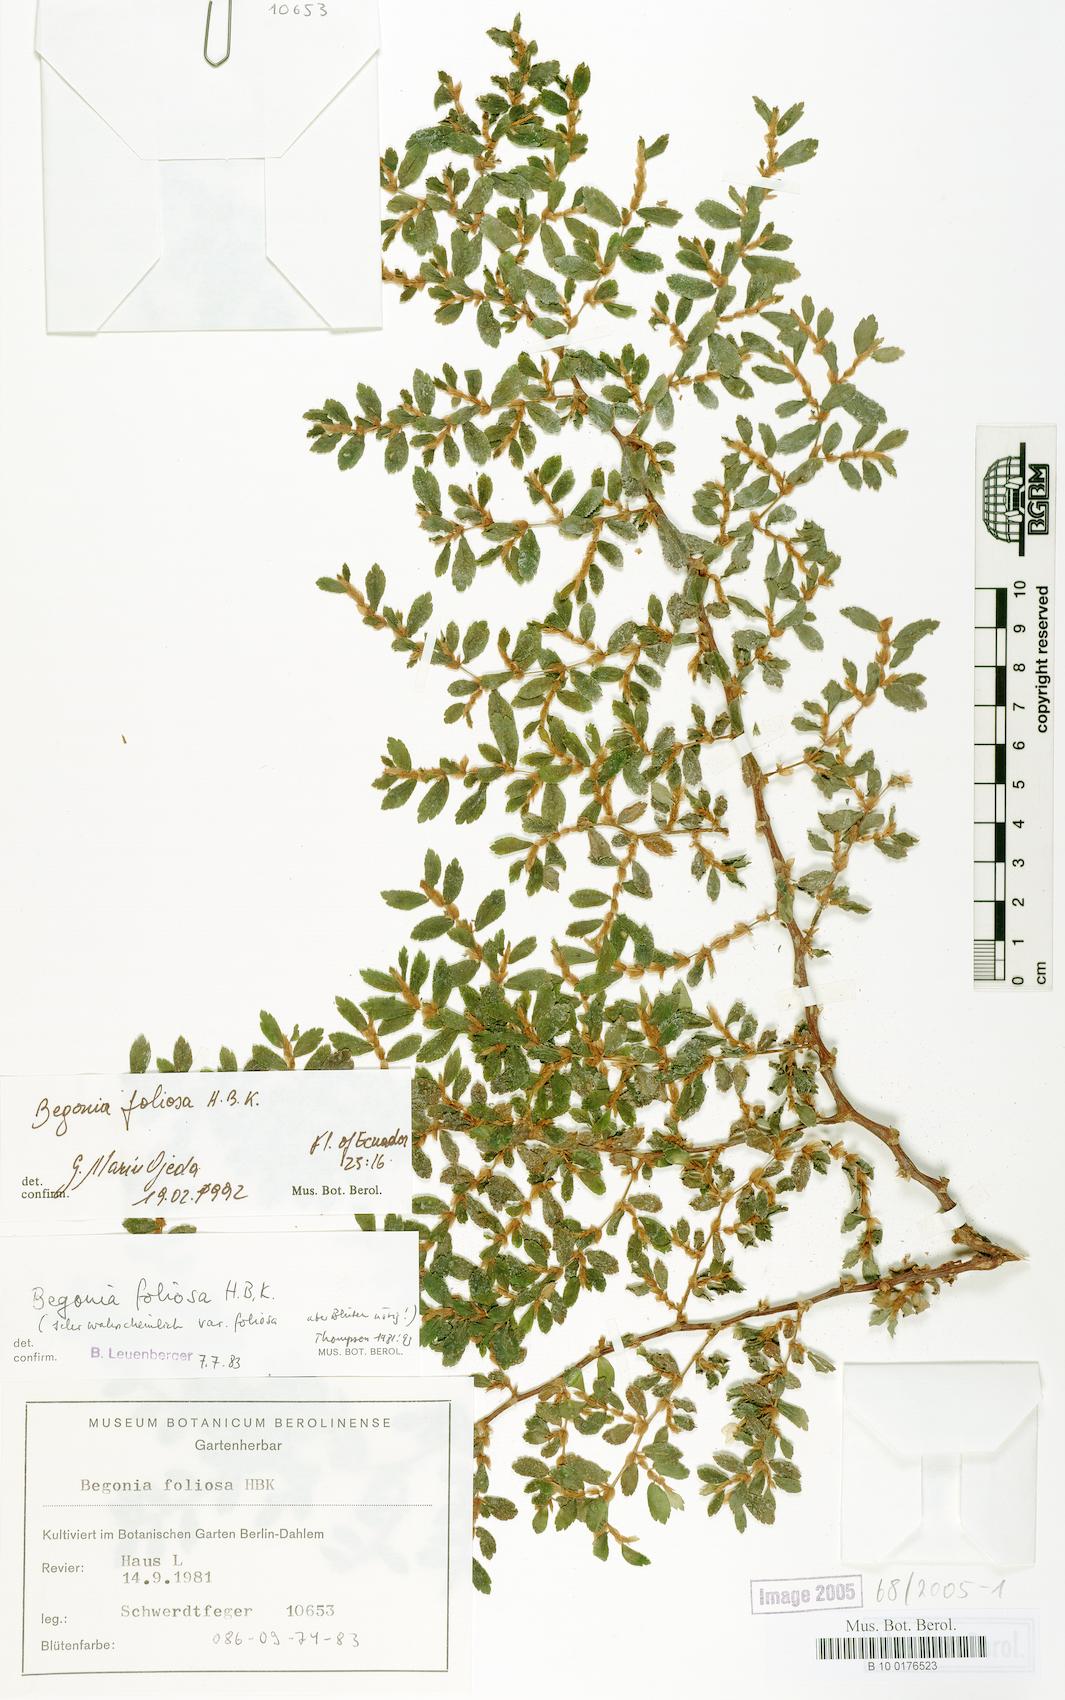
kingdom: Plantae
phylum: Tracheophyta
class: Magnoliopsida
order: Cucurbitales
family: Begoniaceae
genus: Begonia
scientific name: Begonia foliosa
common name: Fern begonia
